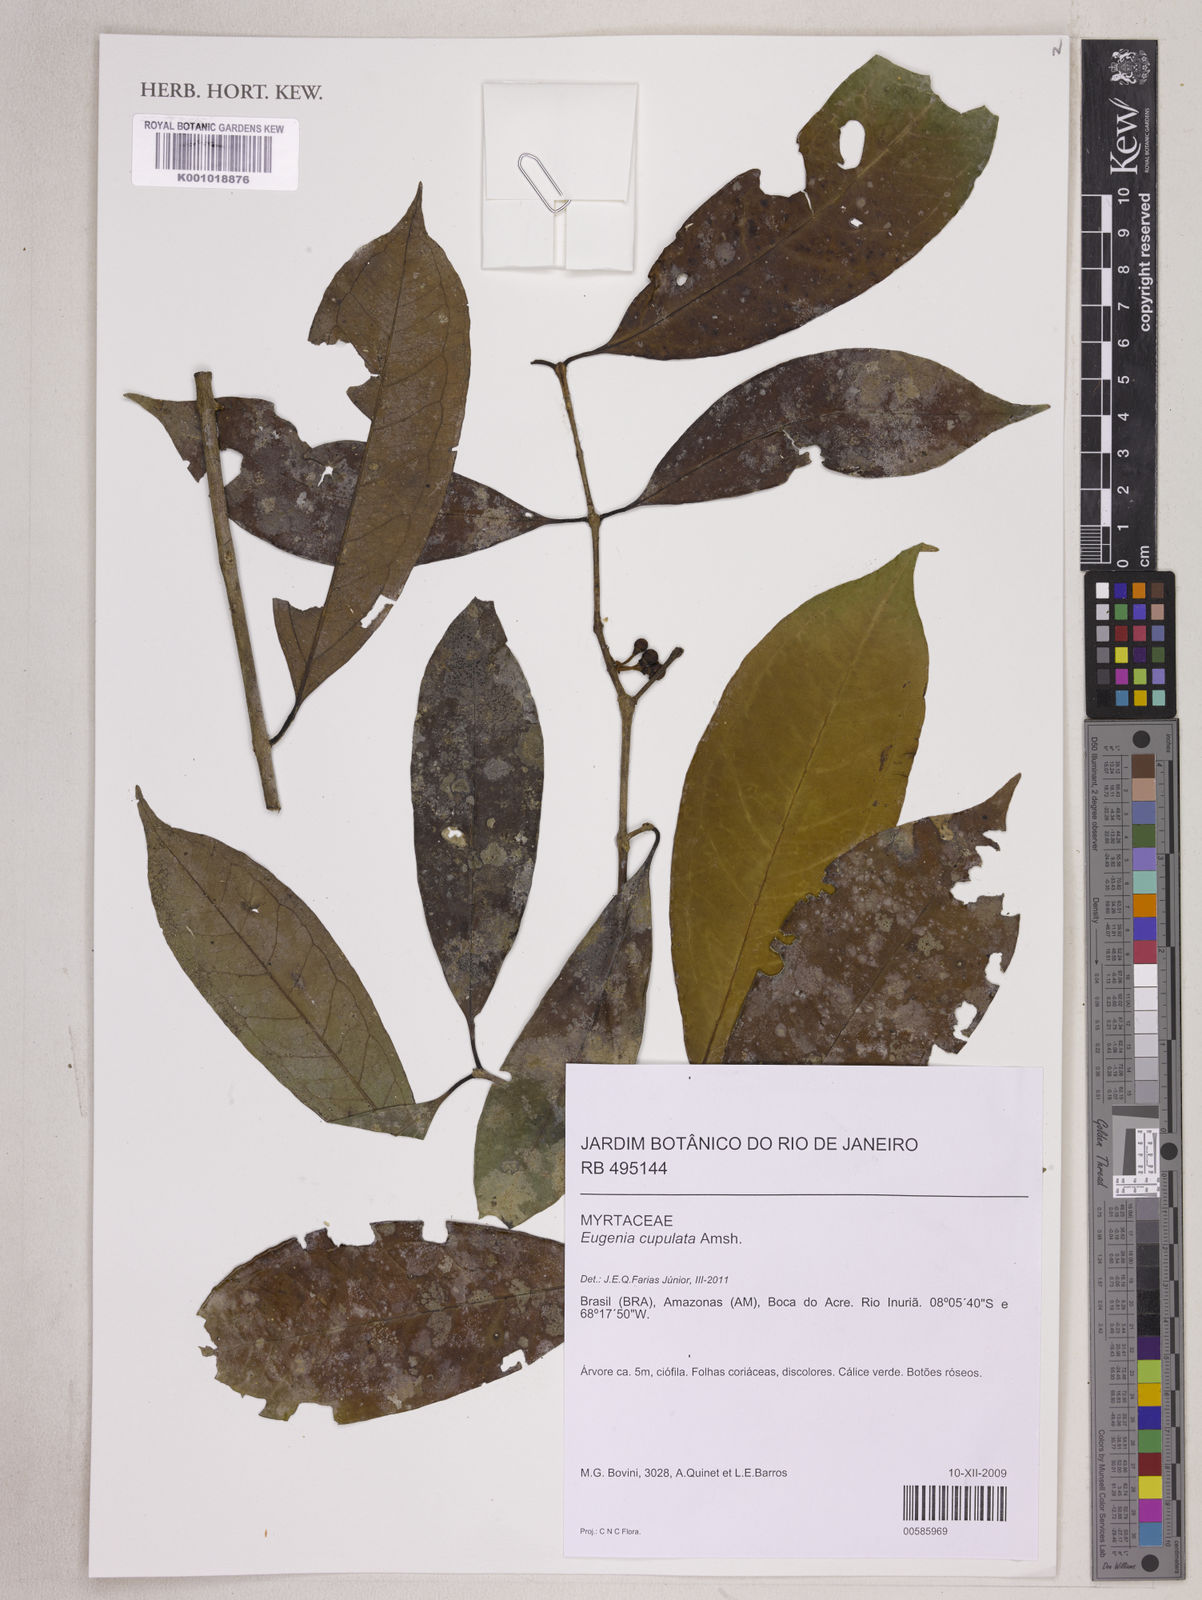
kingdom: Plantae
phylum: Tracheophyta
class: Magnoliopsida
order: Myrtales
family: Myrtaceae
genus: Eugenia
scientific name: Eugenia cupulata
